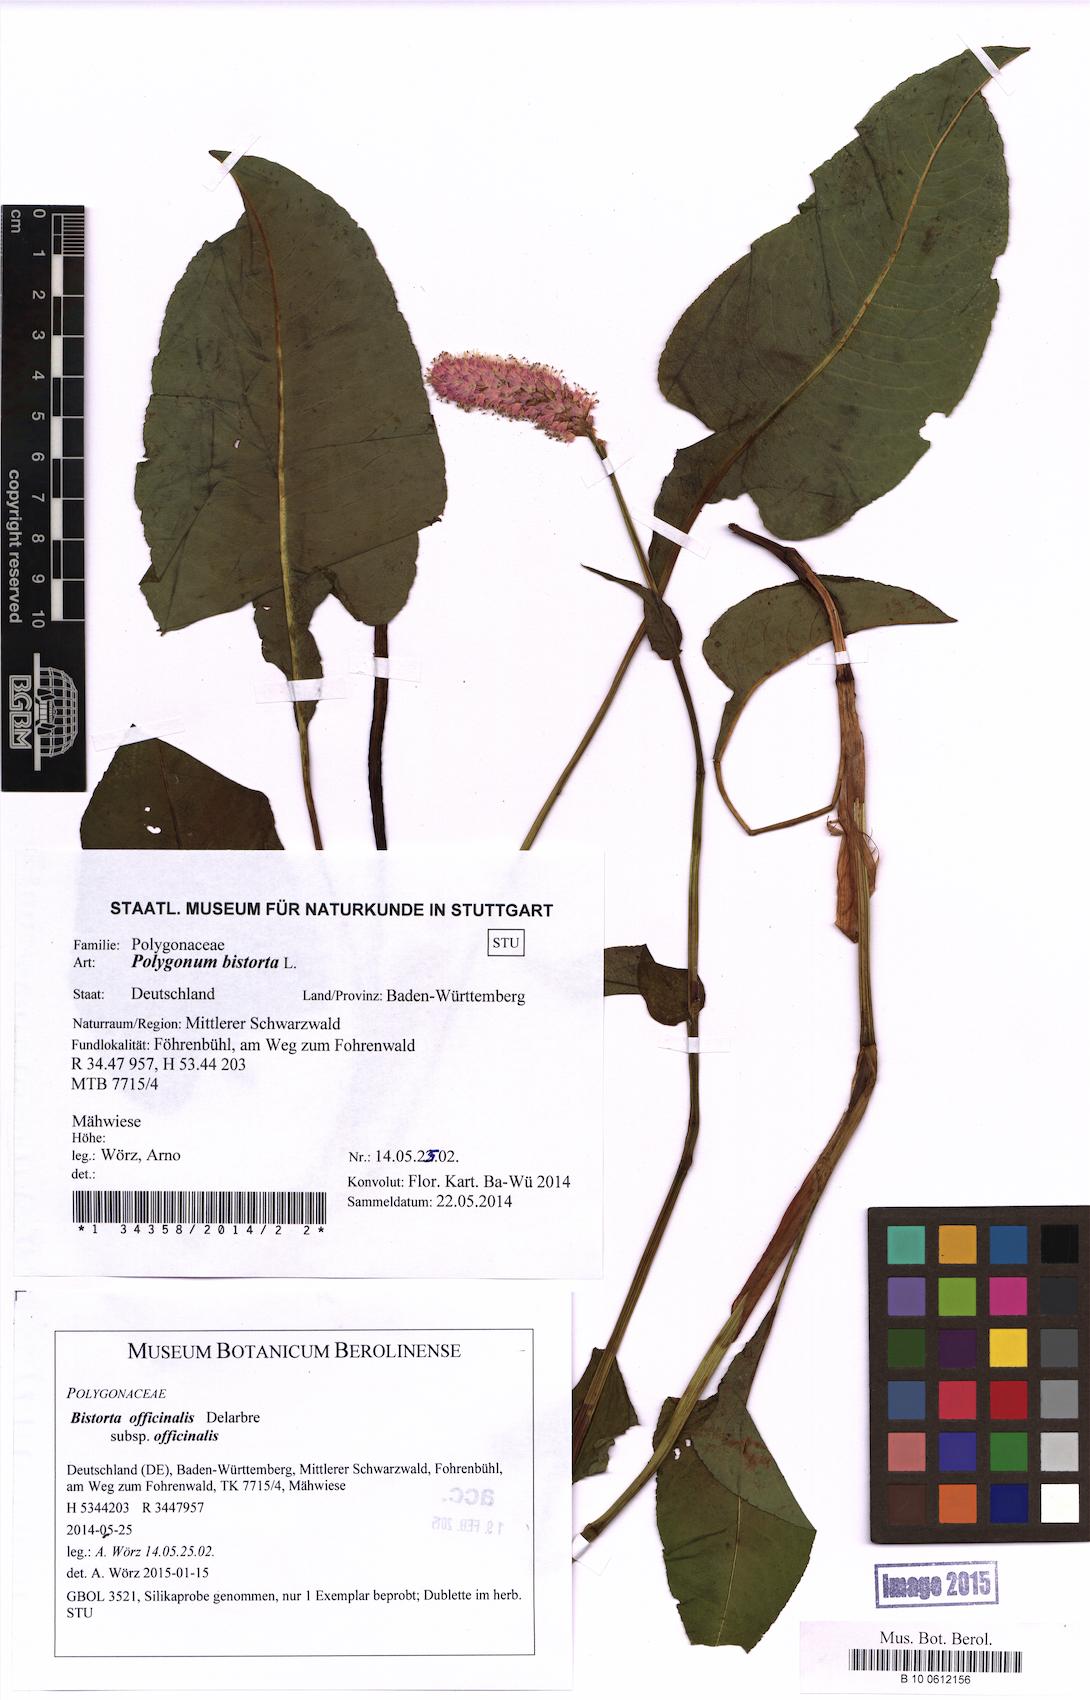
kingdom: Plantae
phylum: Tracheophyta
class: Magnoliopsida
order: Caryophyllales
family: Polygonaceae
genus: Bistorta
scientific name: Bistorta officinalis
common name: Common bistort
